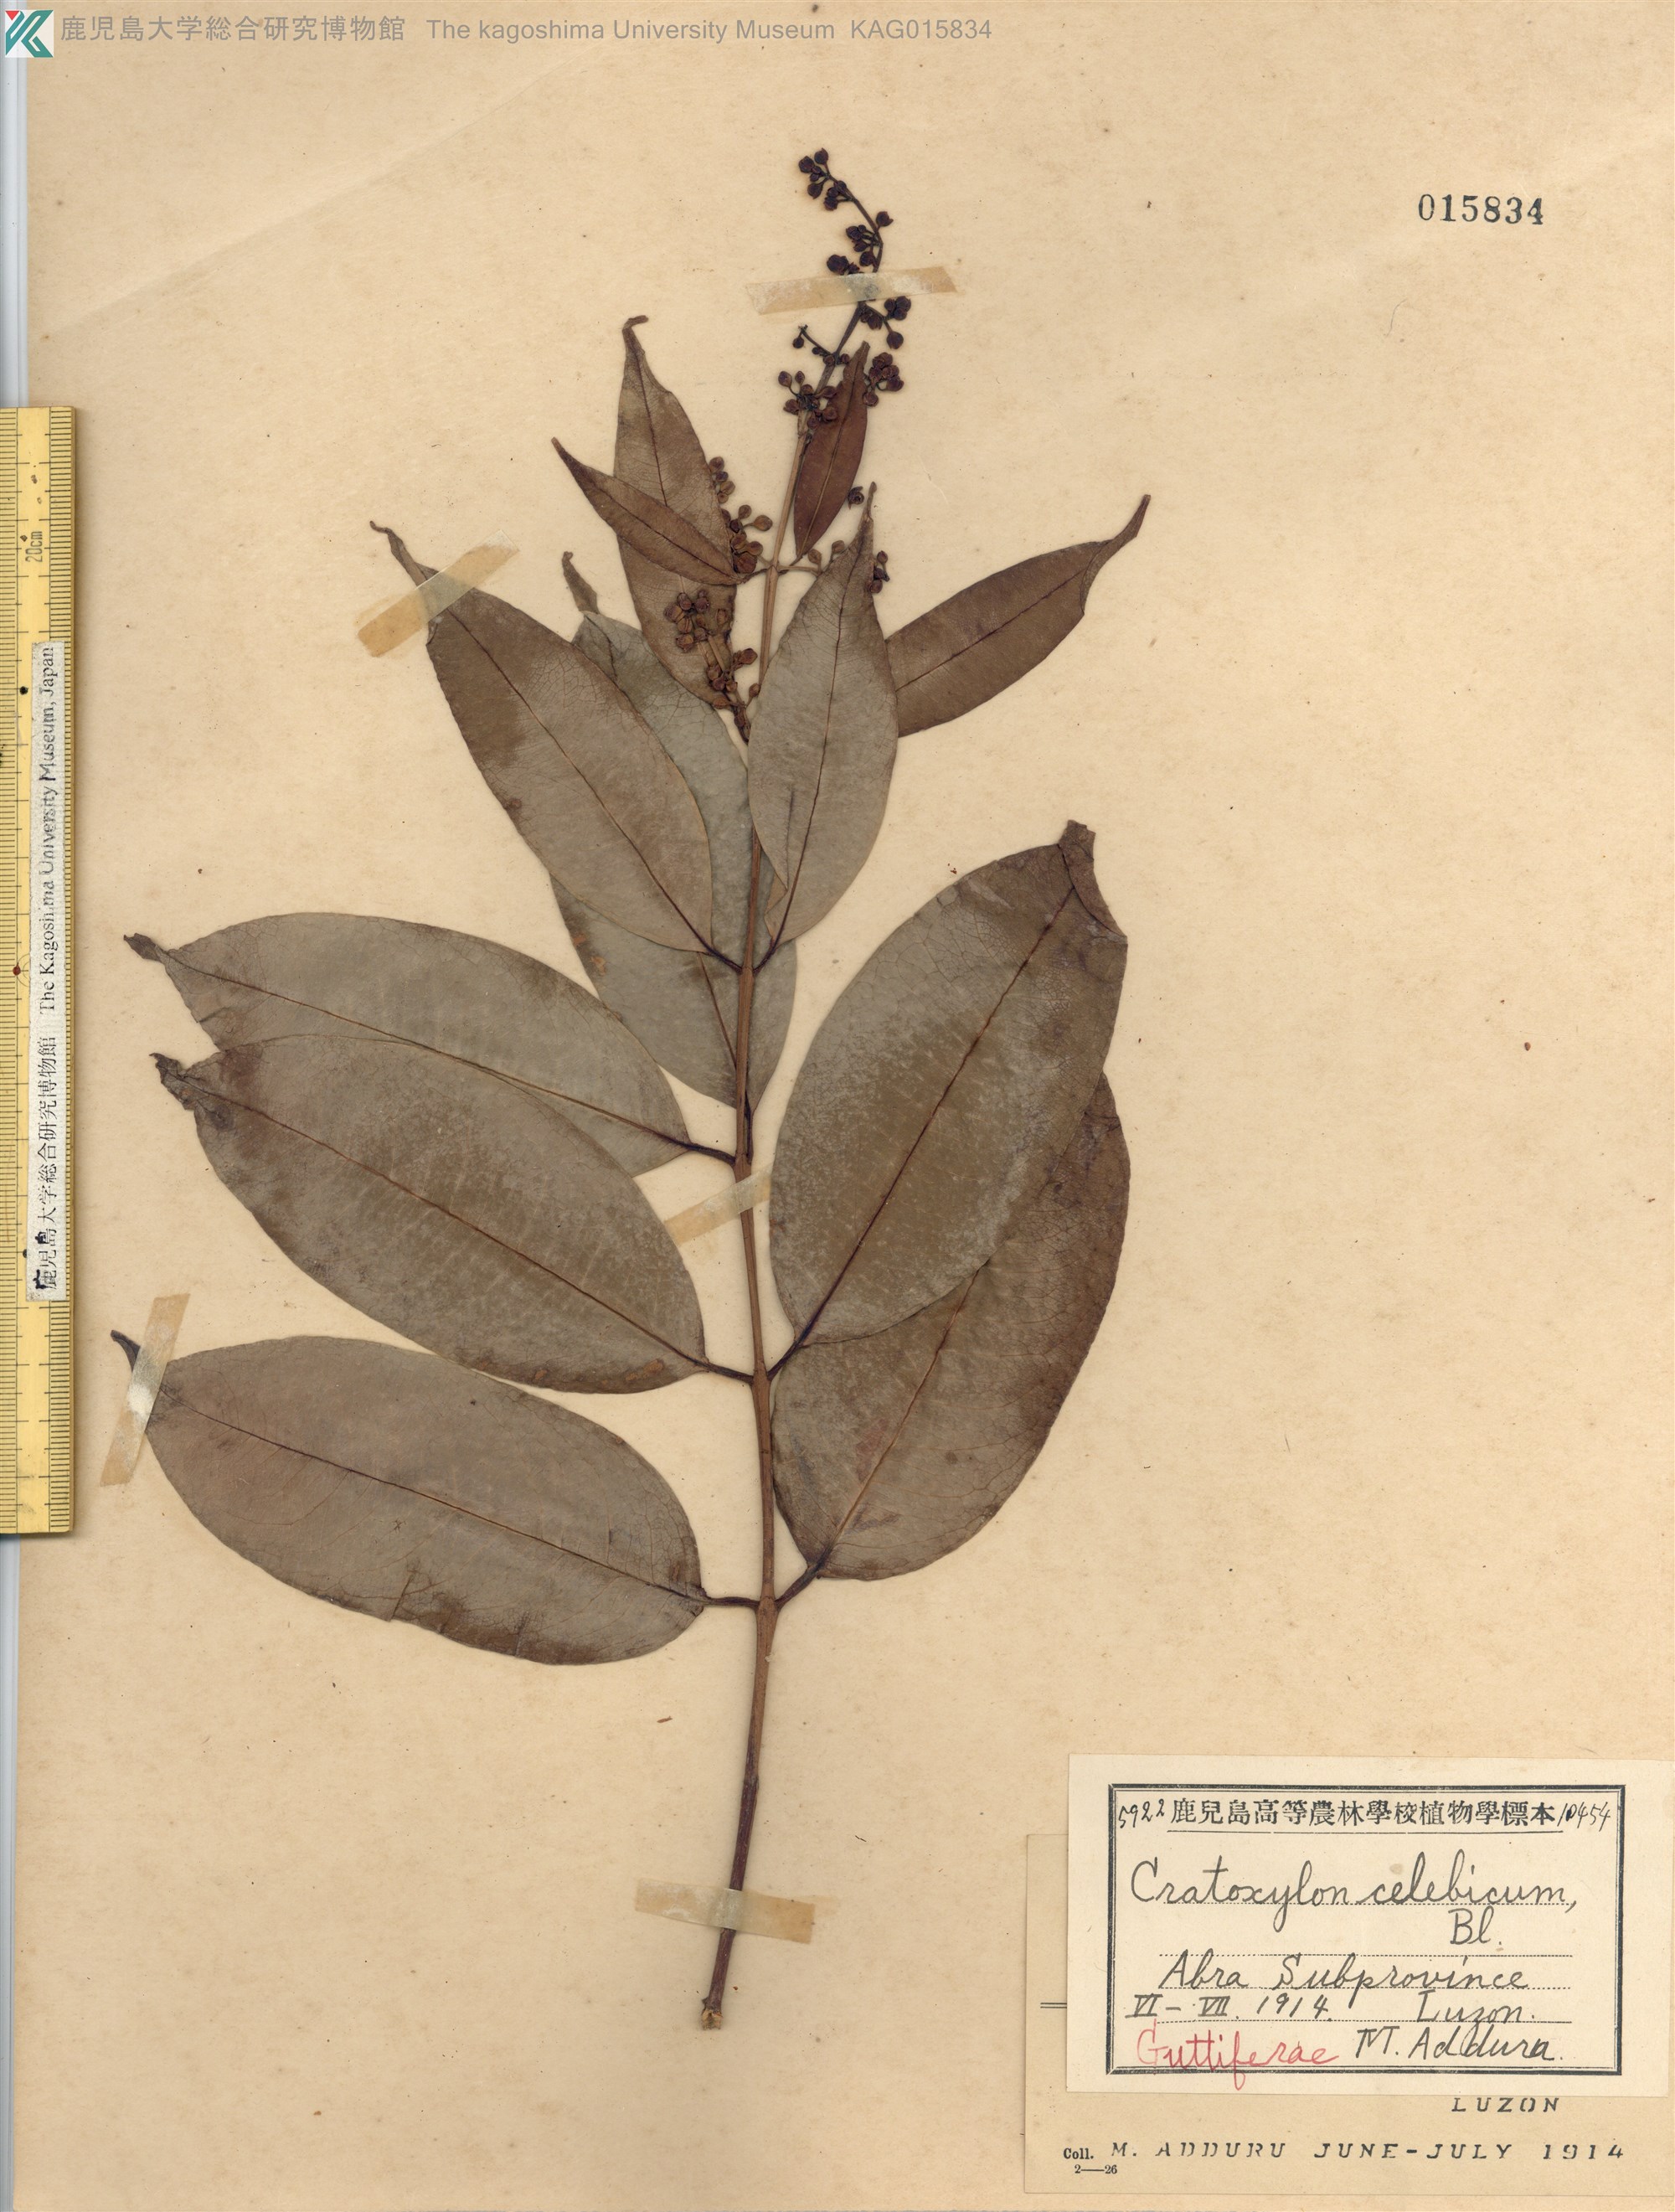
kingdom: Plantae
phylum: Tracheophyta
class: Magnoliopsida
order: Malpighiales
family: Hypericaceae
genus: Cratoxylum
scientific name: Cratoxylum sumatranum
